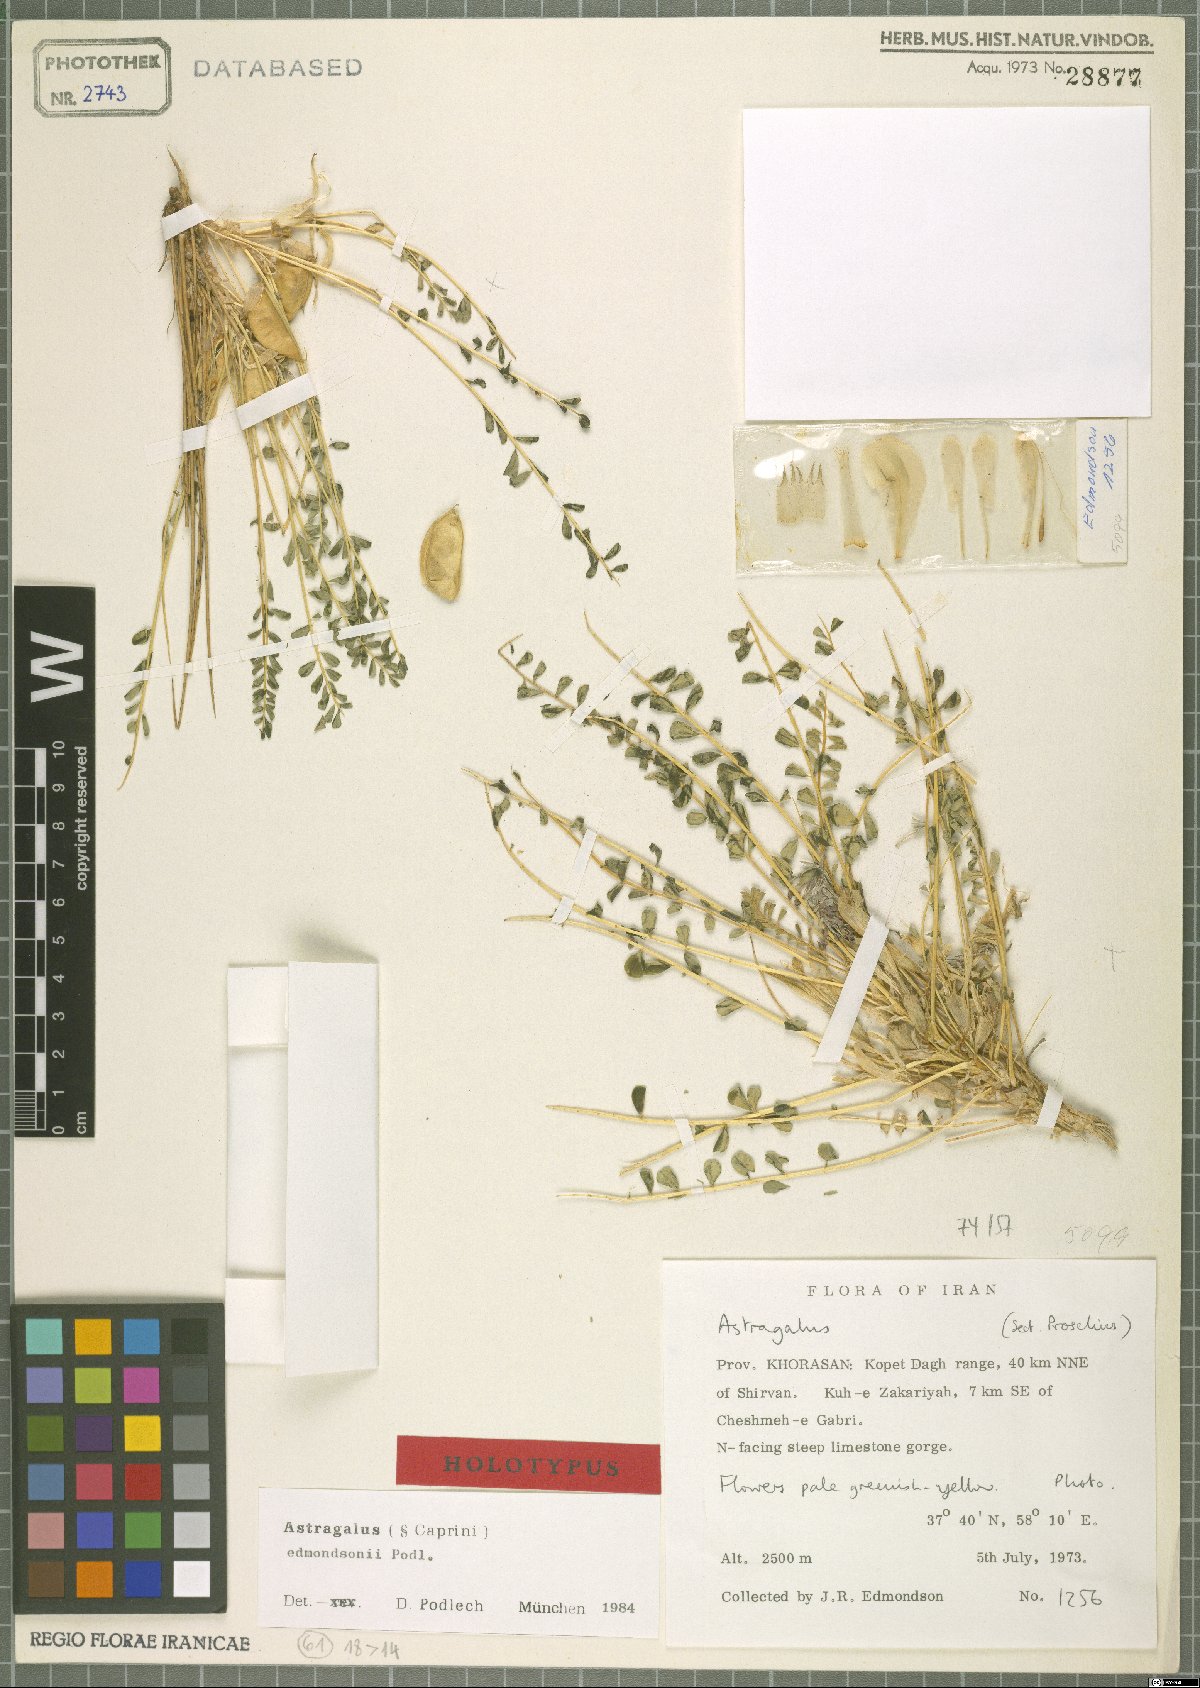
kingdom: Plantae
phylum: Tracheophyta
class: Magnoliopsida
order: Fabales
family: Fabaceae
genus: Astragalus
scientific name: Astragalus edmondsonii
